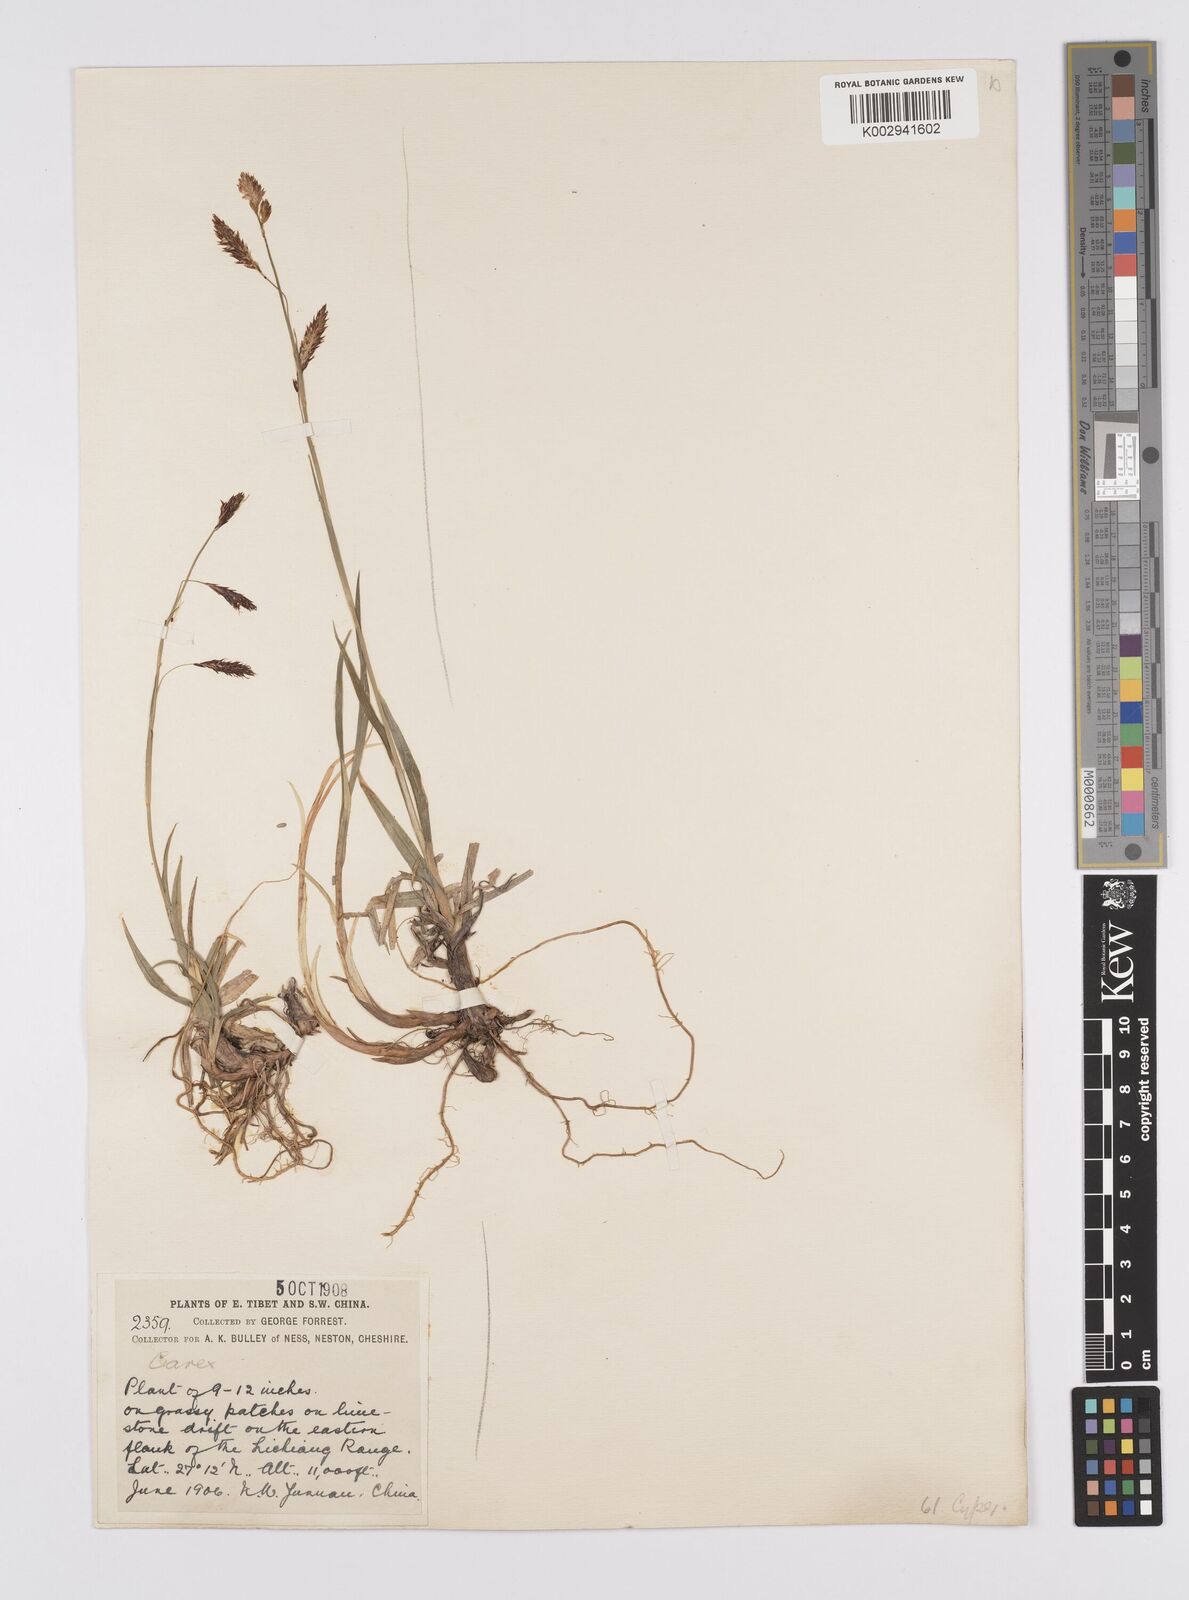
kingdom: Plantae
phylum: Tracheophyta
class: Liliopsida
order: Poales
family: Cyperaceae
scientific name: Cyperaceae
